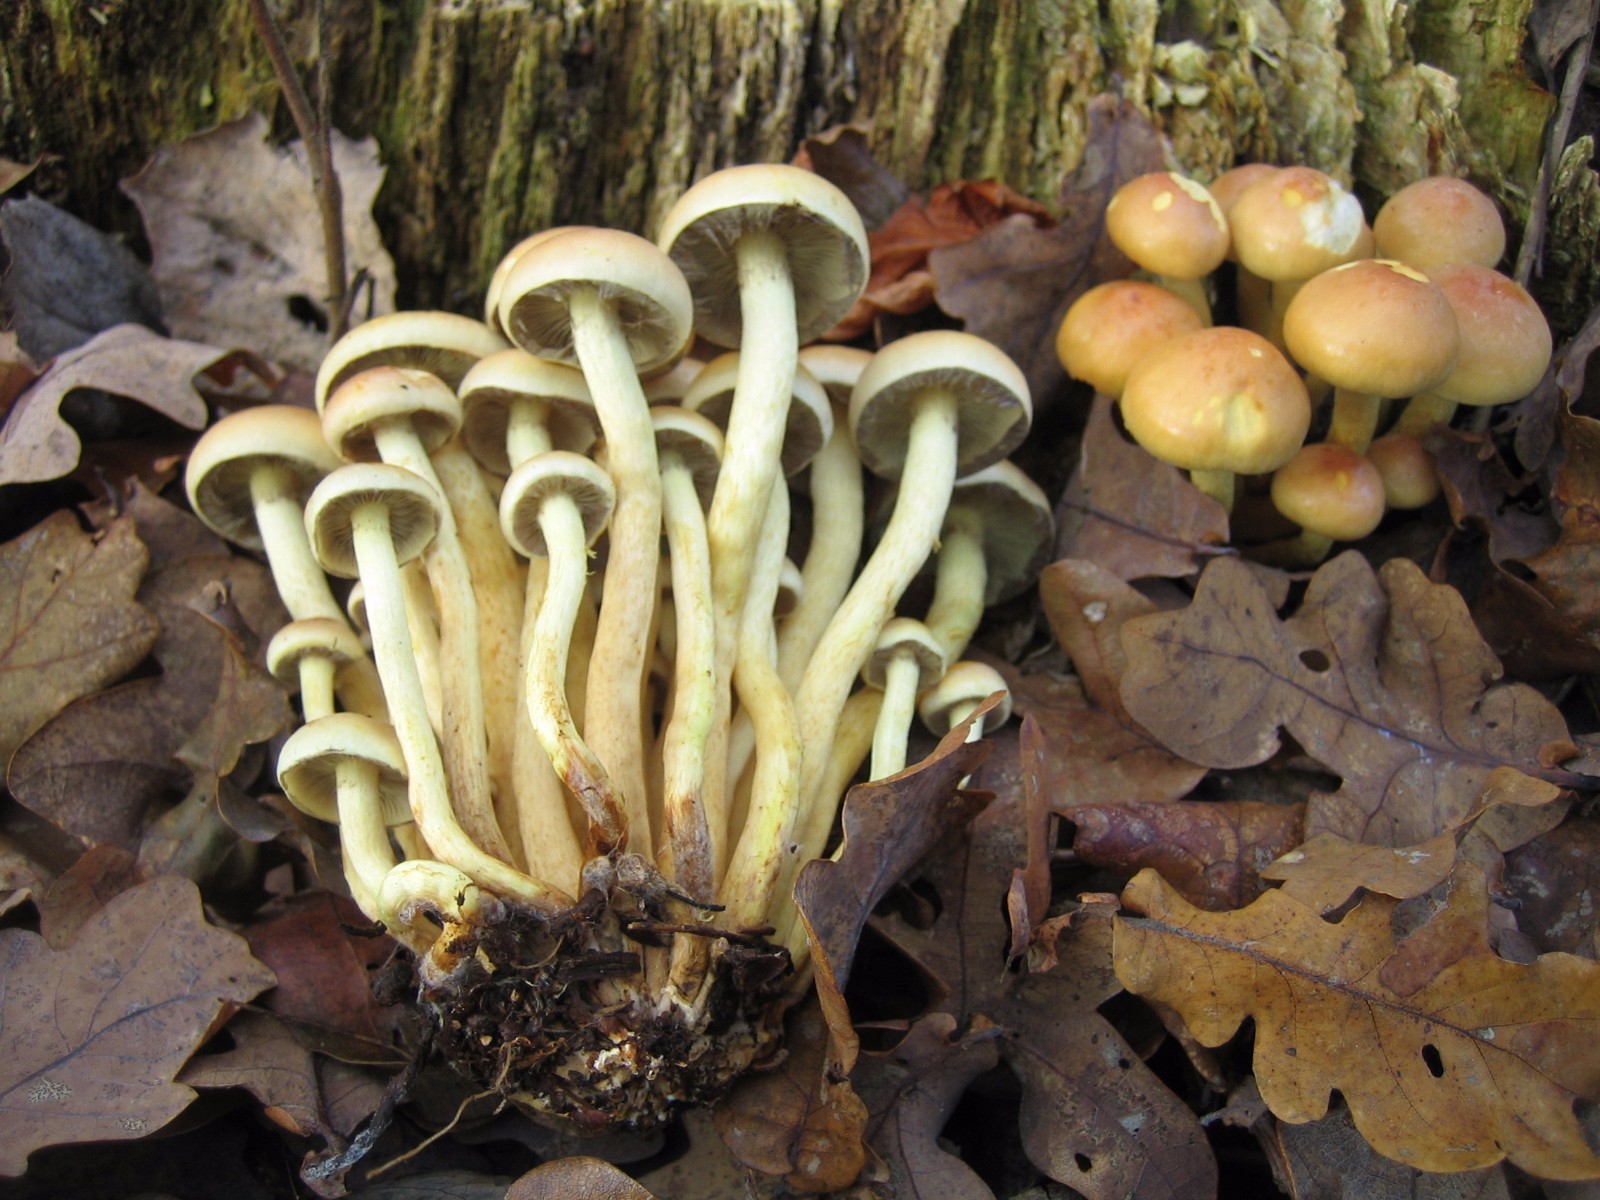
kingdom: Fungi
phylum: Basidiomycota
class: Agaricomycetes
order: Agaricales
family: Strophariaceae
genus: Hypholoma
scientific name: Hypholoma fasciculare
